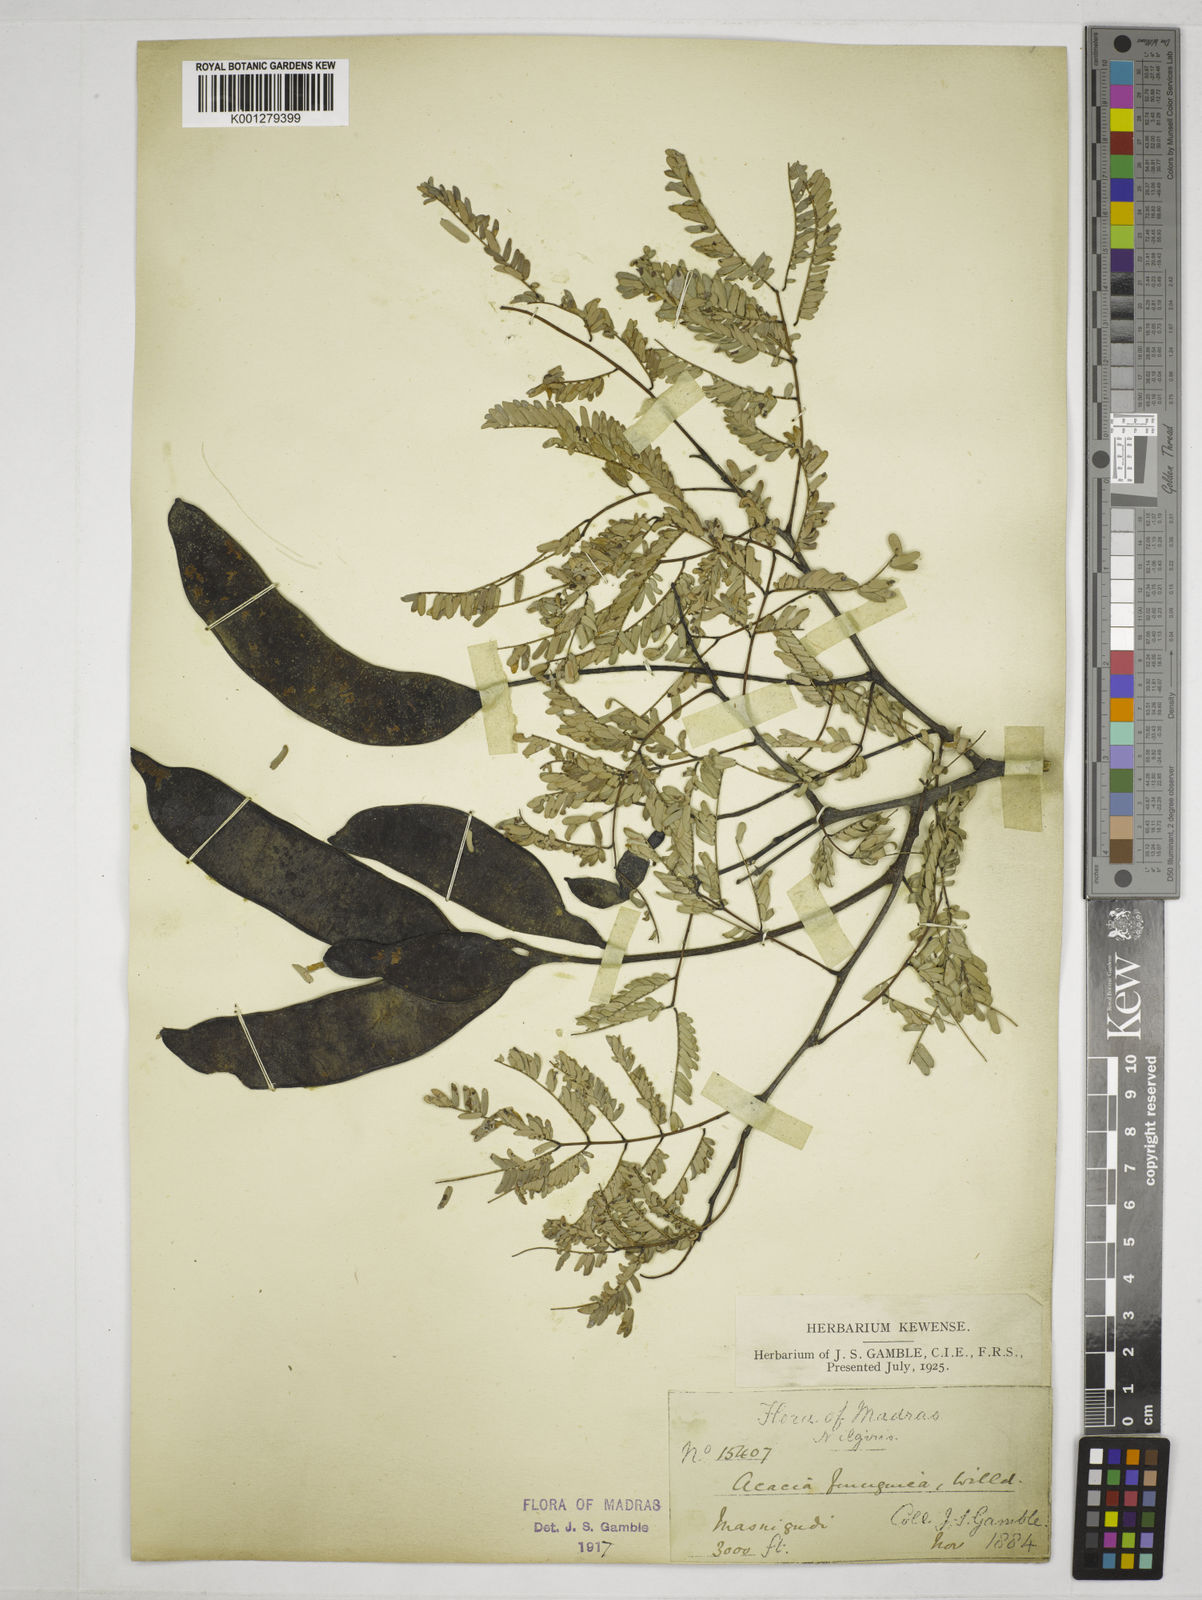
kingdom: Plantae
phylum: Tracheophyta
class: Magnoliopsida
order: Fabales
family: Fabaceae
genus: Senegalia
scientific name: Senegalia ferruginea
